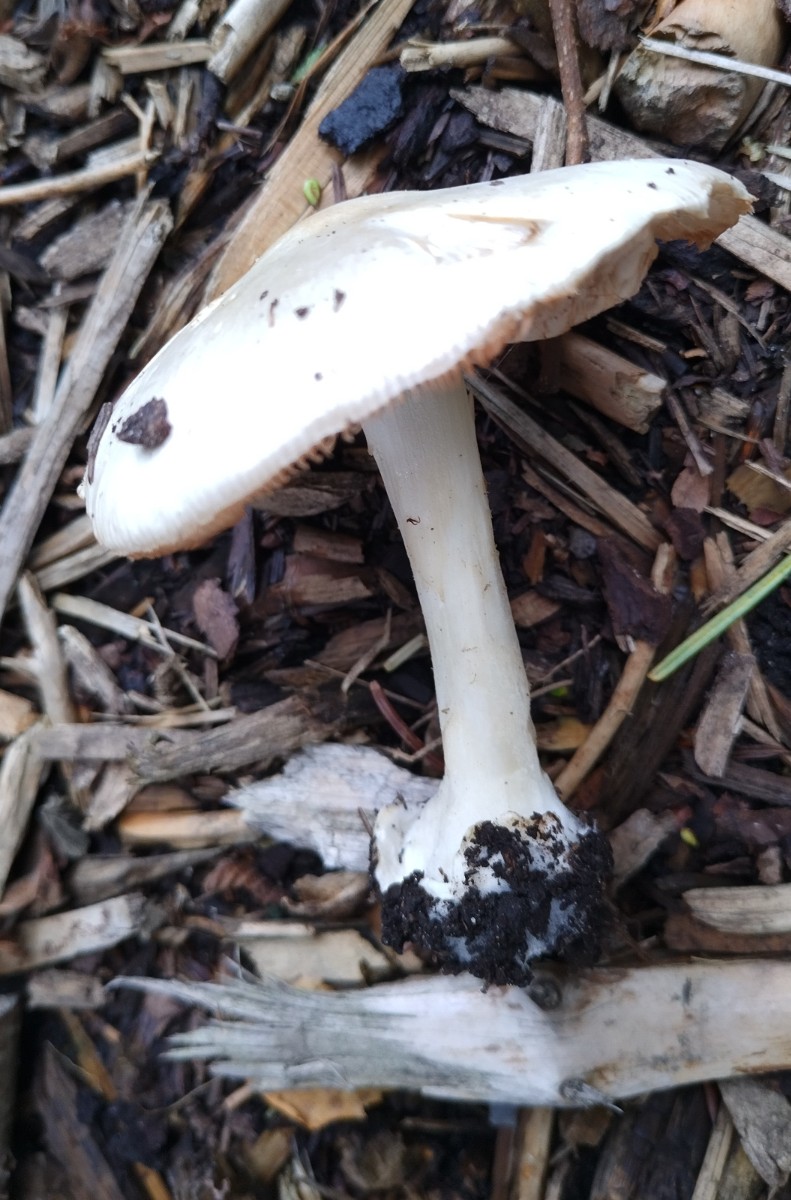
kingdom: Fungi
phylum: Basidiomycota
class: Agaricomycetes
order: Agaricales
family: Pluteaceae
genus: Volvopluteus
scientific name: Volvopluteus gloiocephalus
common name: høj posesvamp
